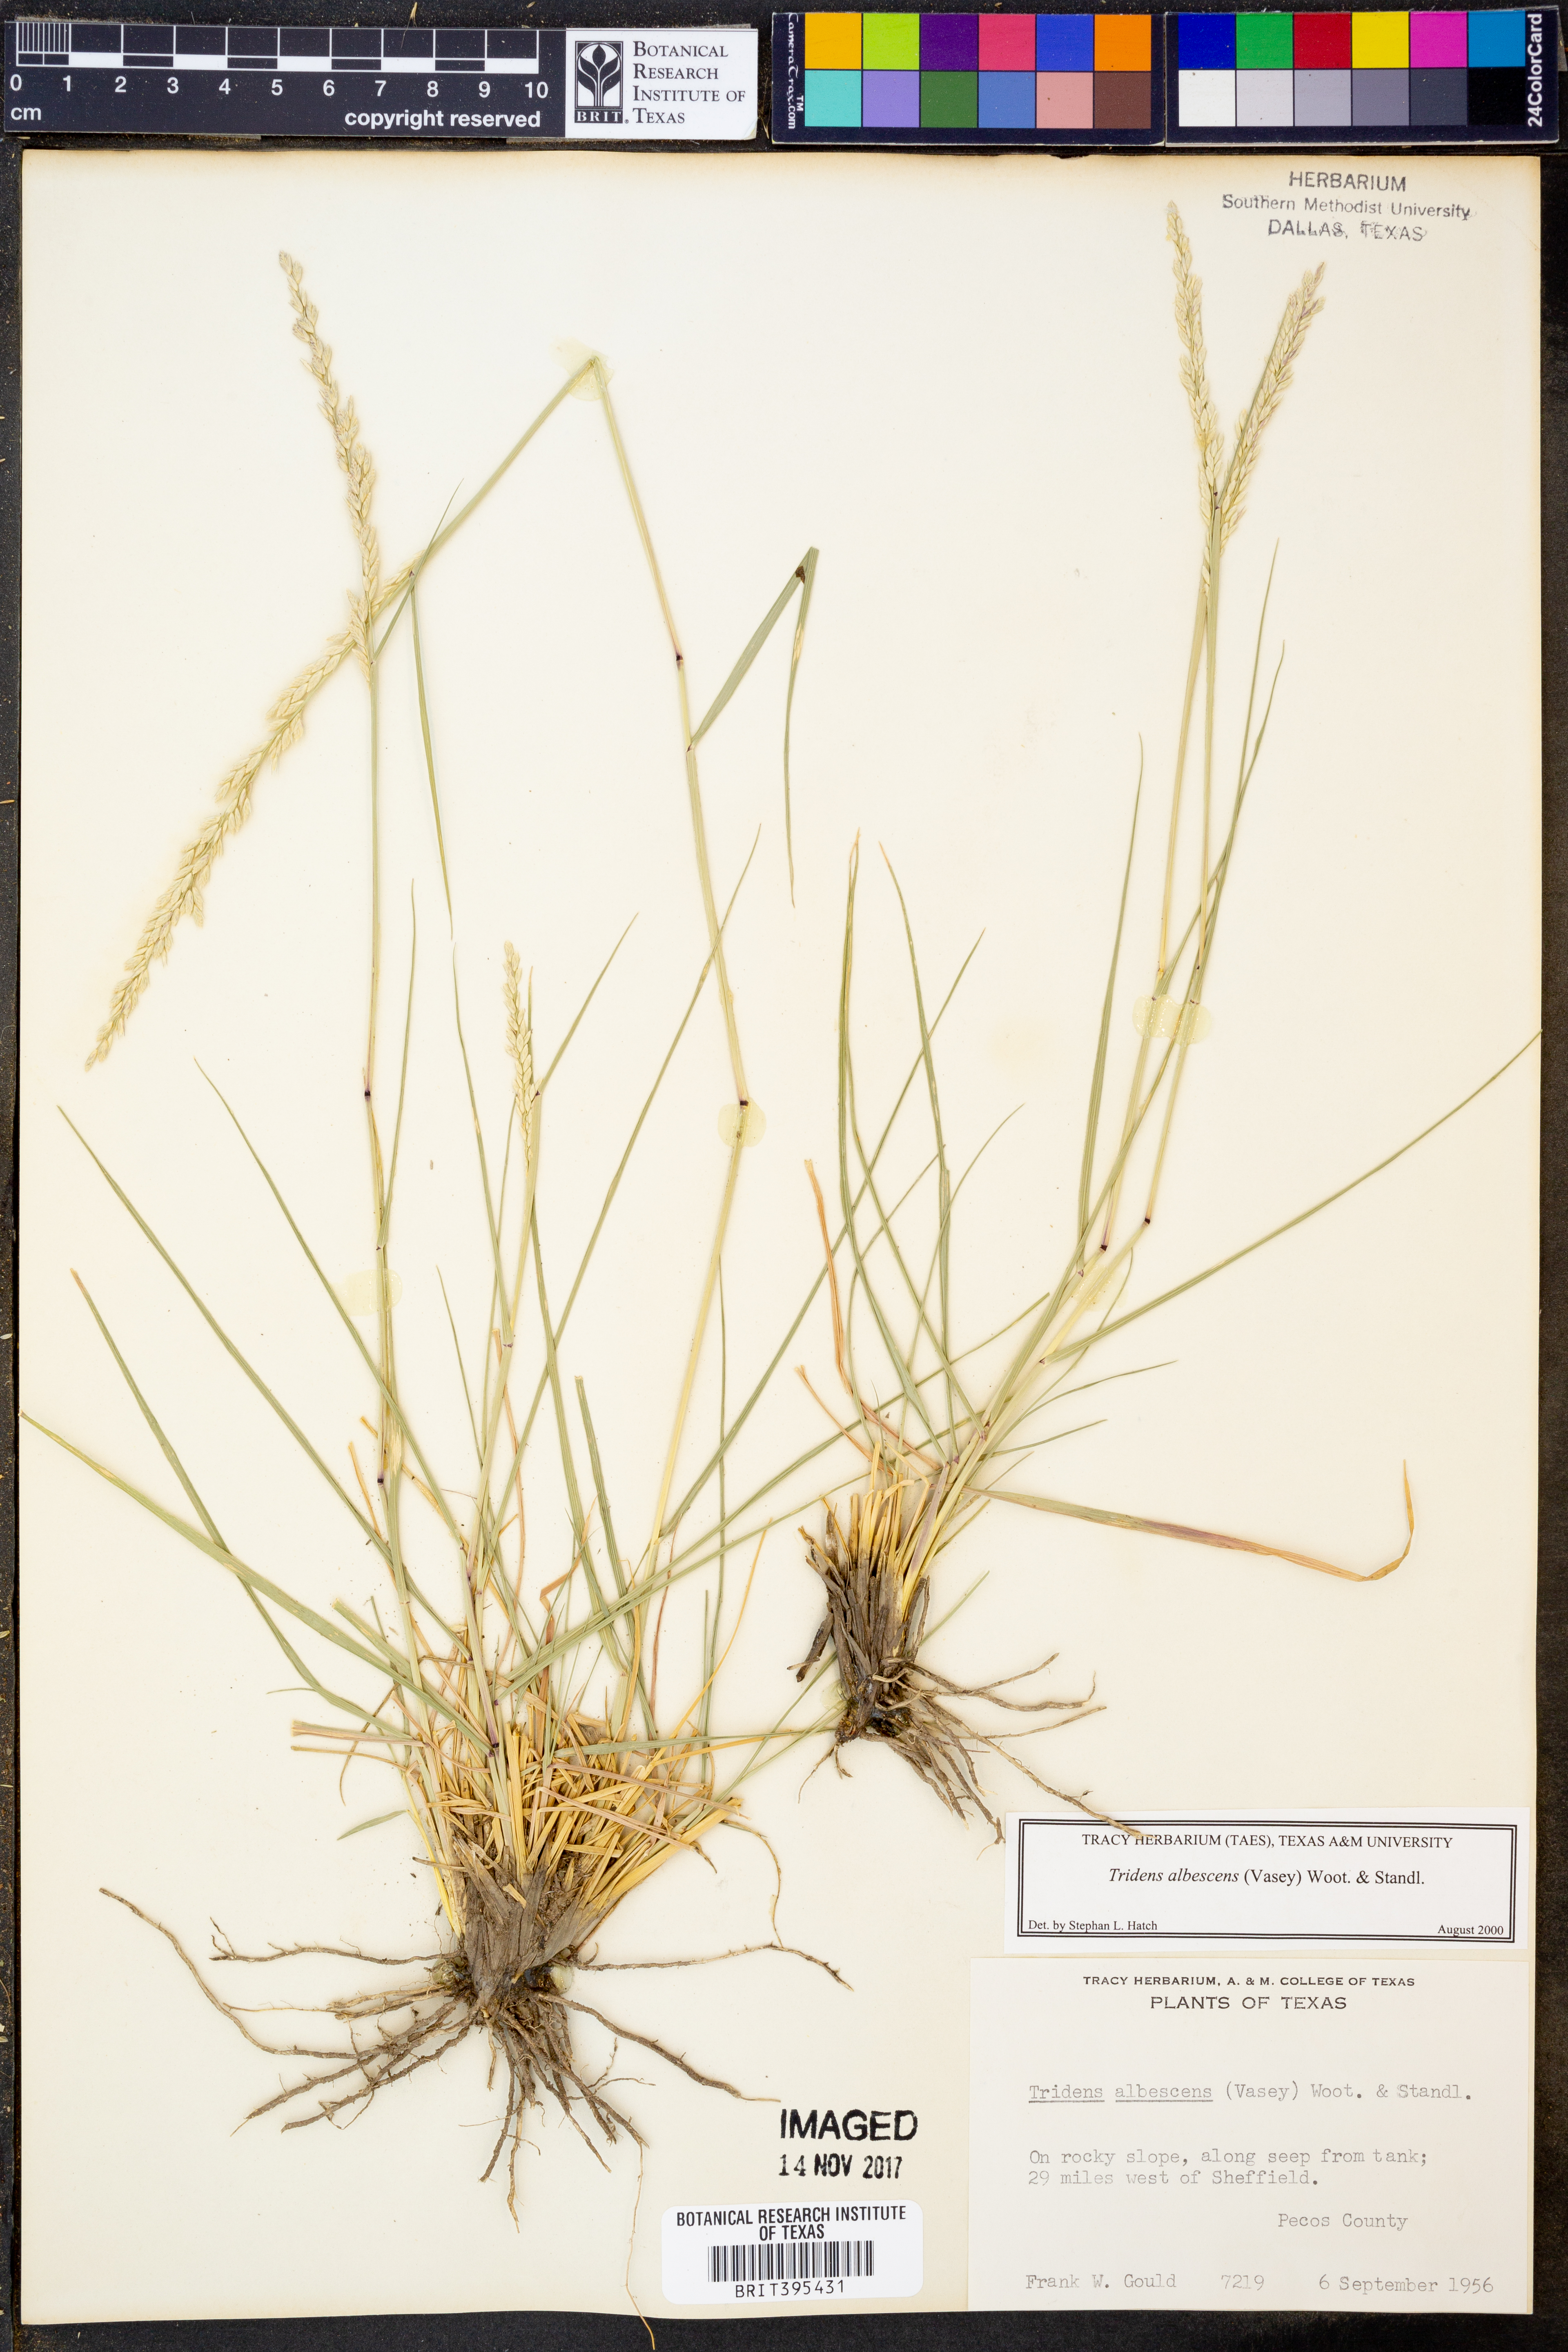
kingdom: Plantae
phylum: Tracheophyta
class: Liliopsida
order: Poales
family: Poaceae
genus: Tridens
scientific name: Tridens albescens
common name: White tridens
